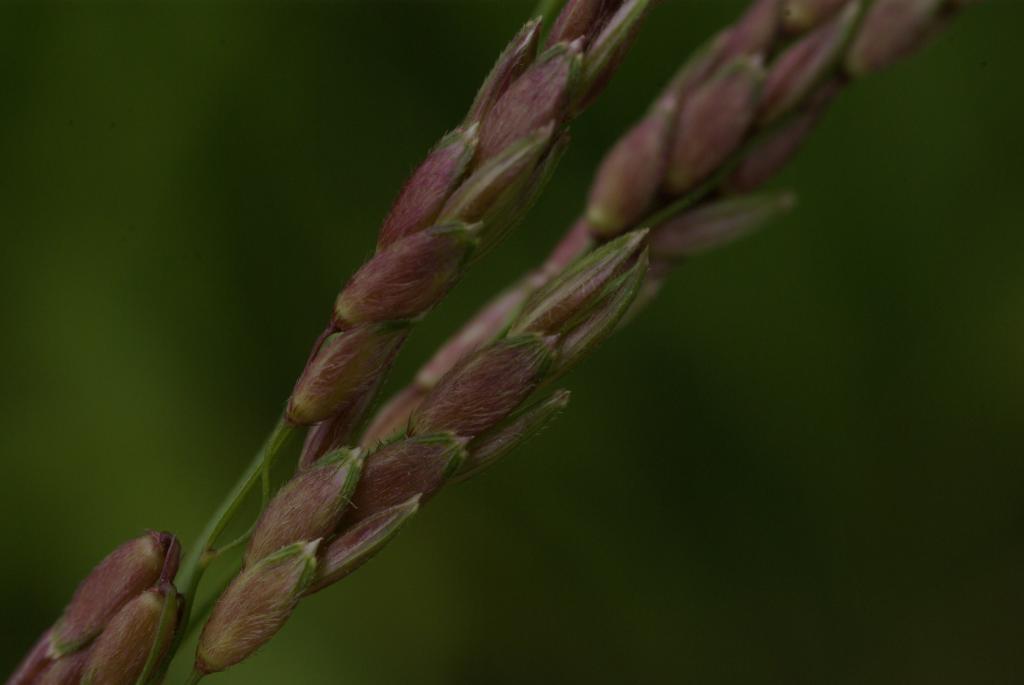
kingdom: Plantae
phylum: Tracheophyta
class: Liliopsida
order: Poales
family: Poaceae
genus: Sorghum
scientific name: Sorghum halepense
